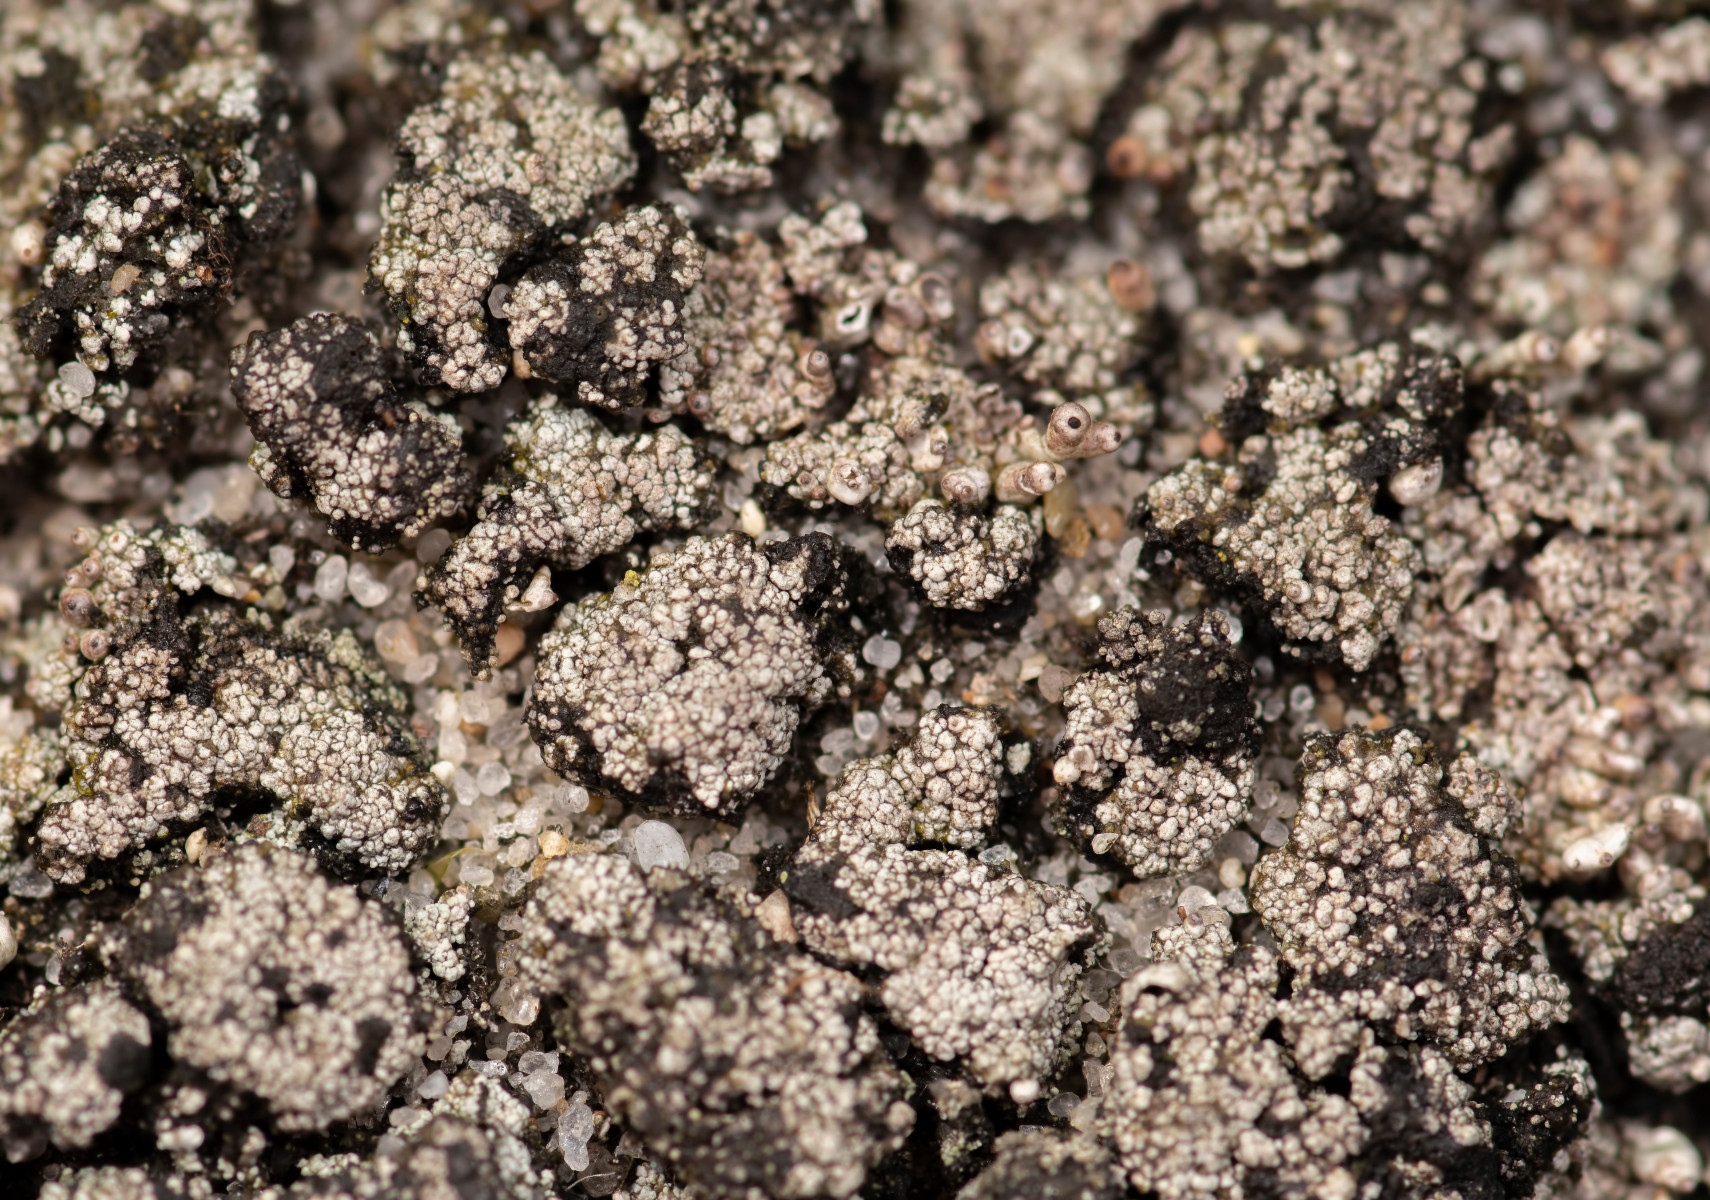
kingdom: Fungi
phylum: Ascomycota
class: Lecanoromycetes
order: Lecanorales
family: Cladoniaceae
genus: Pycnothelia
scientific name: Pycnothelia papillaria
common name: blødvortet knoplav
